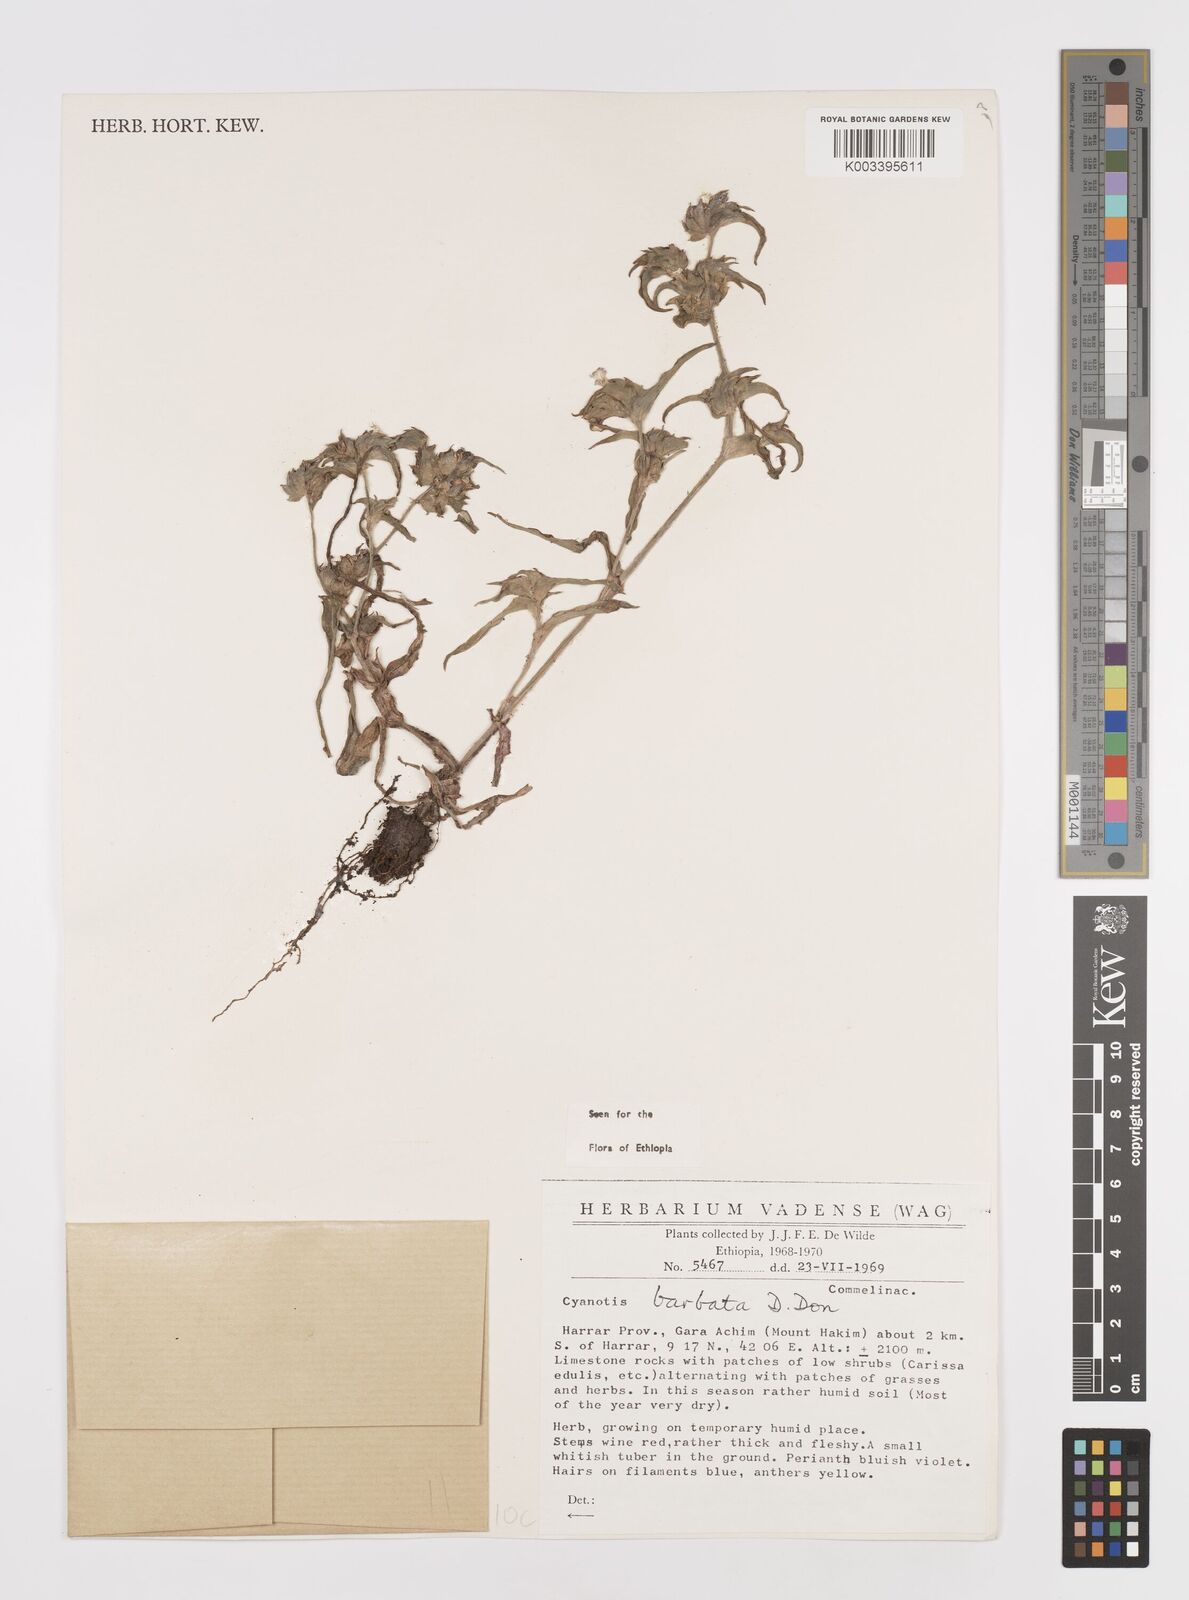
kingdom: Plantae
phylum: Tracheophyta
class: Liliopsida
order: Commelinales
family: Commelinaceae
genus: Cyanotis
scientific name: Cyanotis vaga
